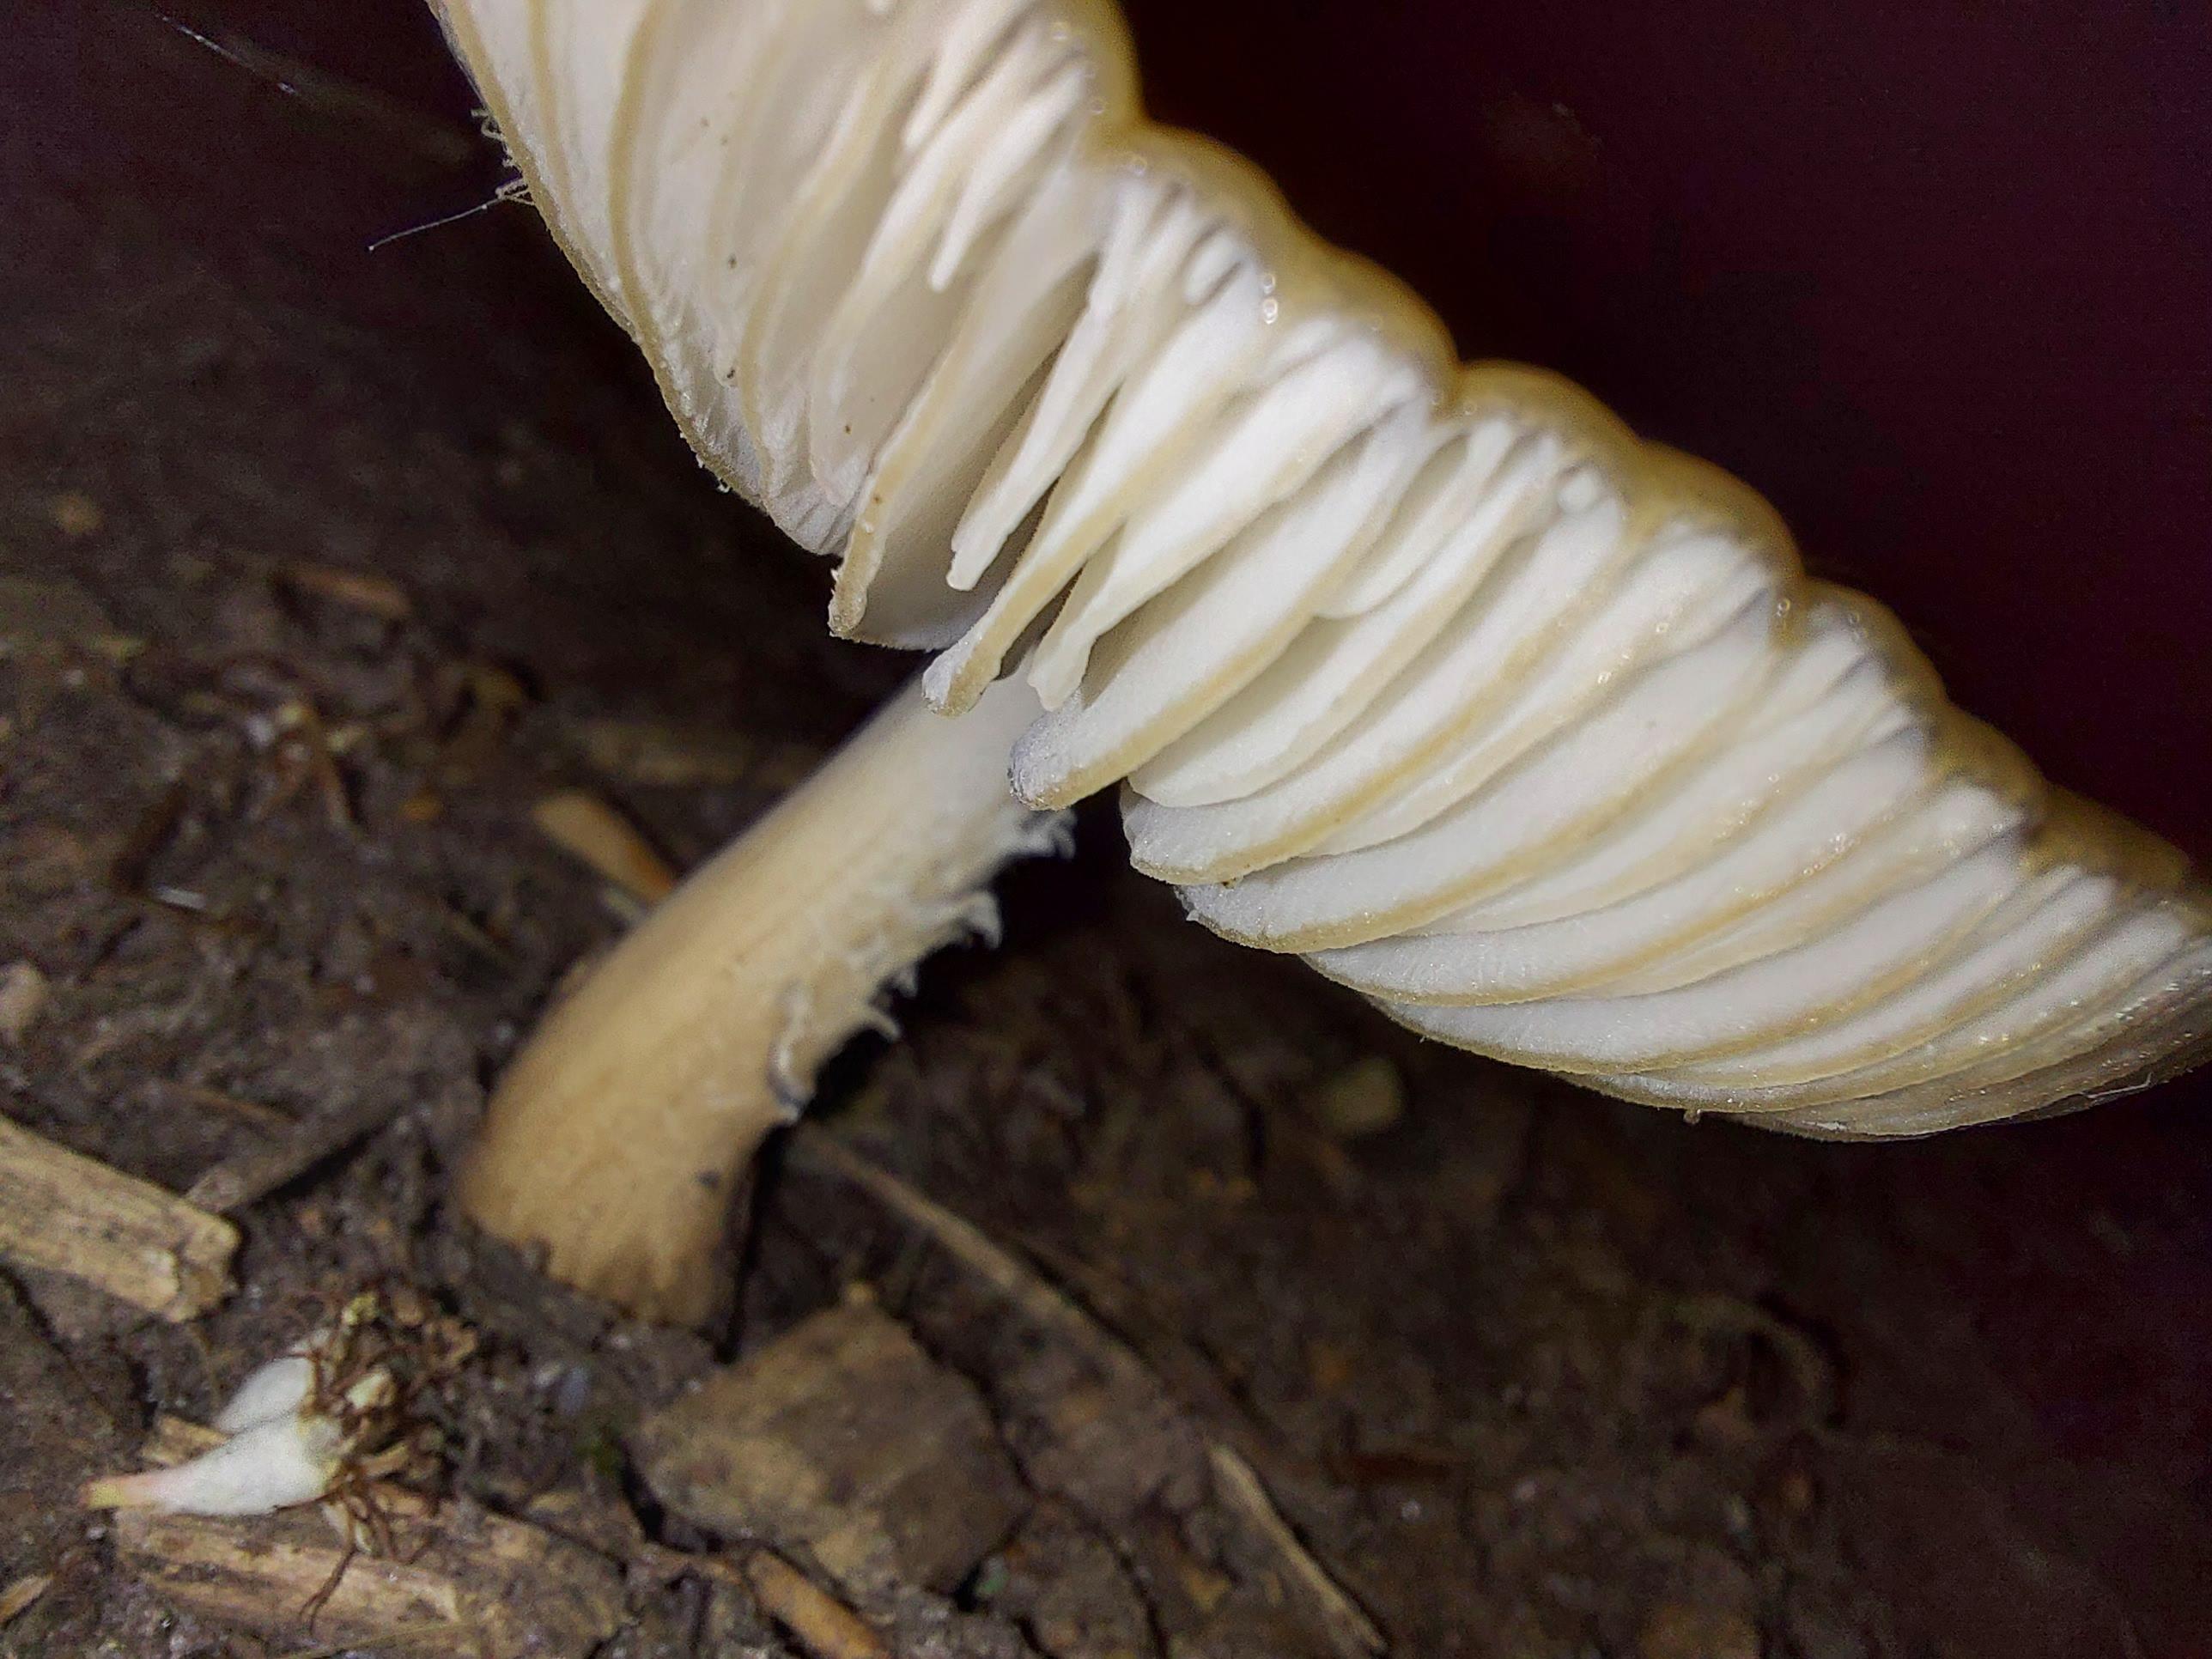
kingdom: Fungi
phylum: Basidiomycota
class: Agaricomycetes
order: Agaricales
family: Physalacriaceae
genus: Hymenopellis
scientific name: Hymenopellis radicata
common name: almindelig pælerodshat
